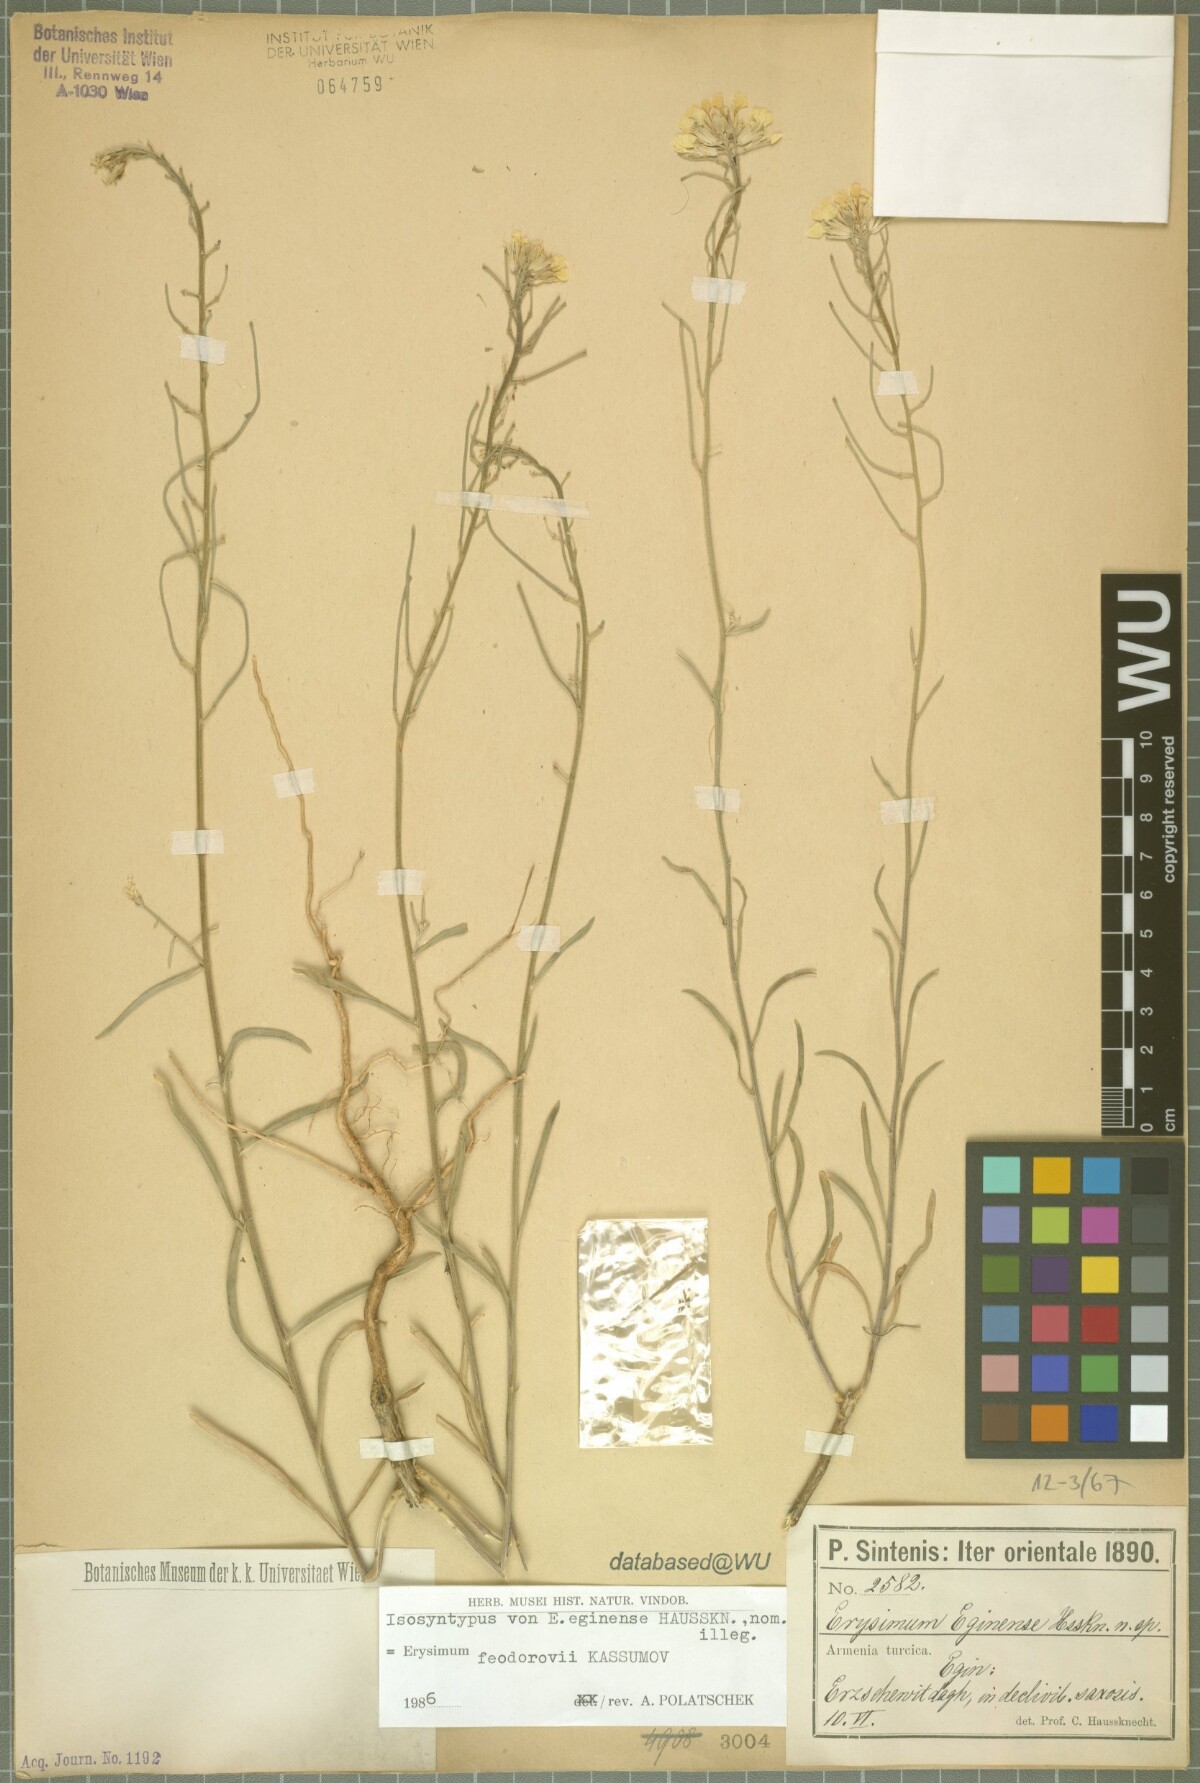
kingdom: Plantae
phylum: Tracheophyta
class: Magnoliopsida
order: Brassicales
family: Brassicaceae
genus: Erysimum
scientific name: Erysimum smyrnaeum
